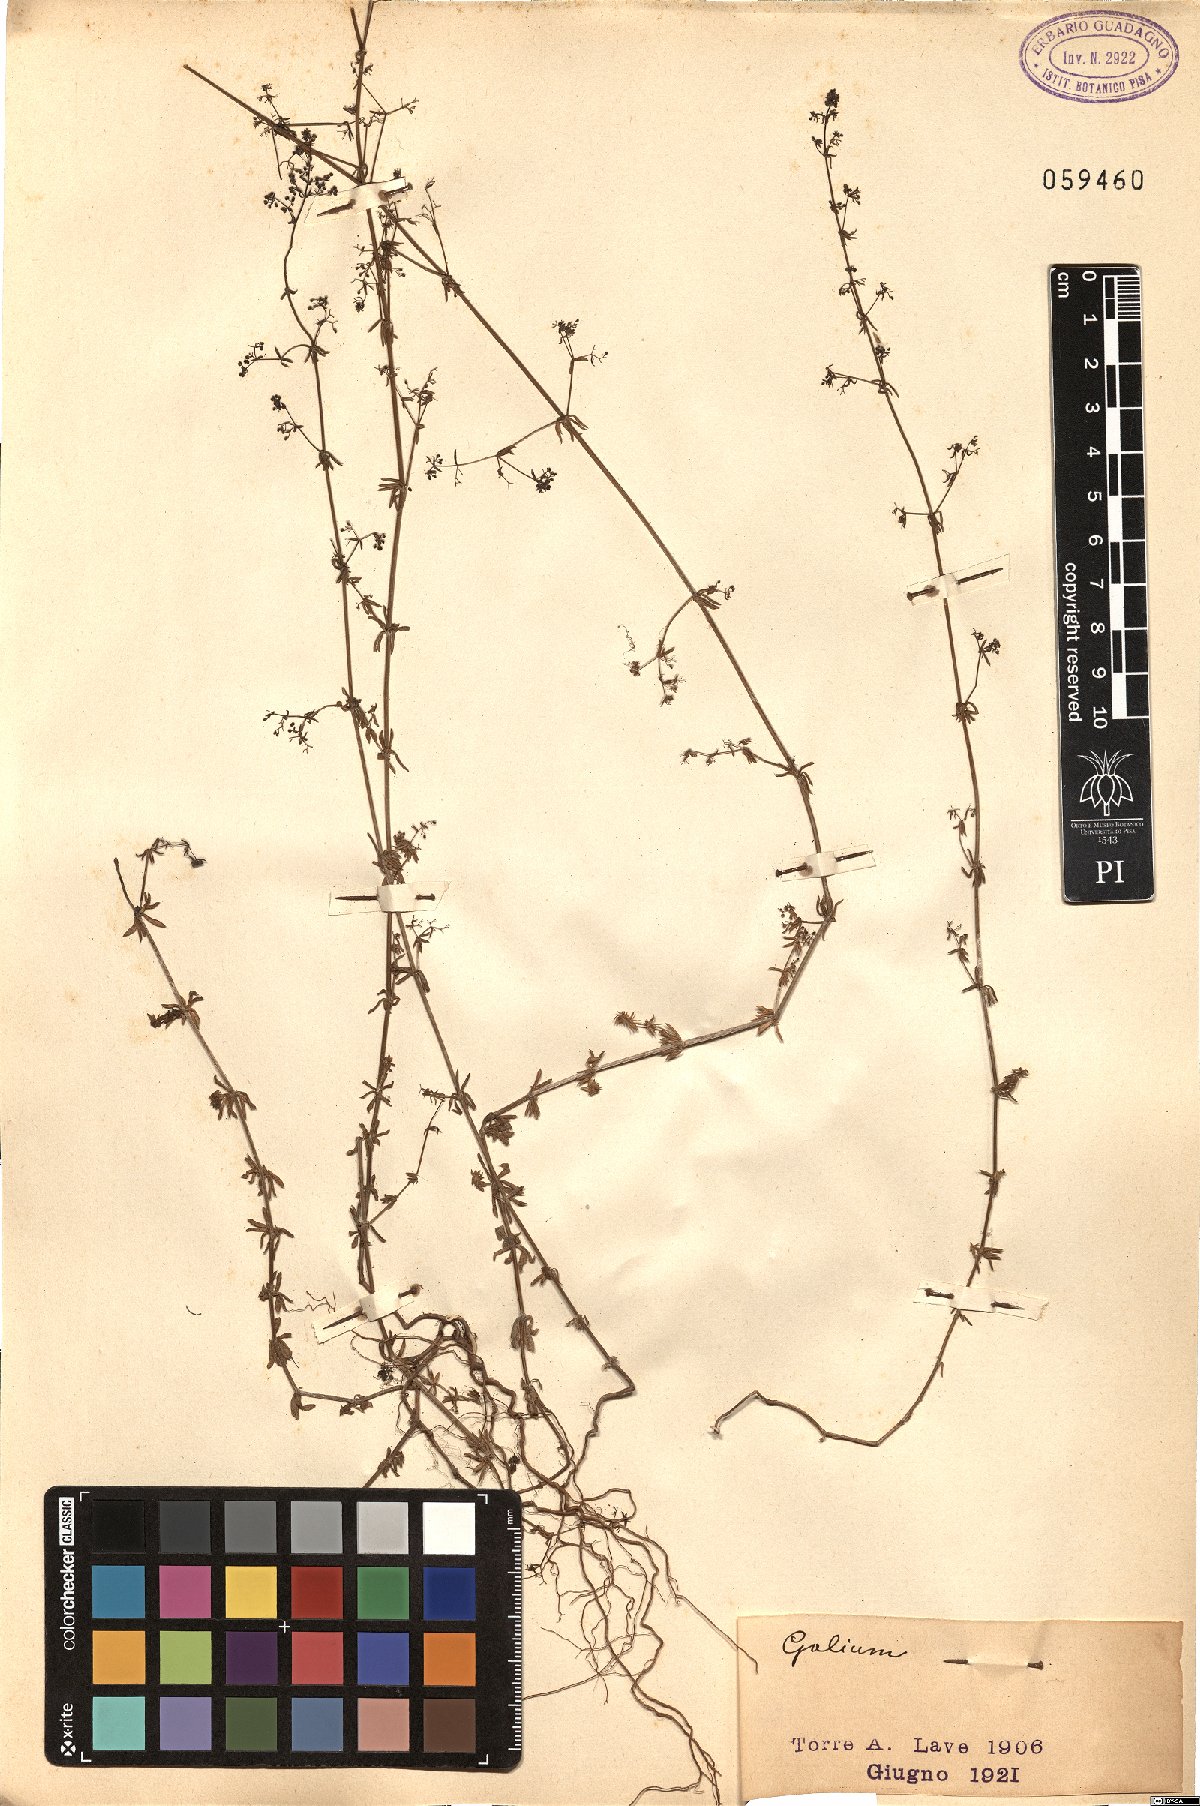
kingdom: Plantae
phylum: Tracheophyta
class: Magnoliopsida
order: Gentianales
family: Rubiaceae
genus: Galium
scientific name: Galium
